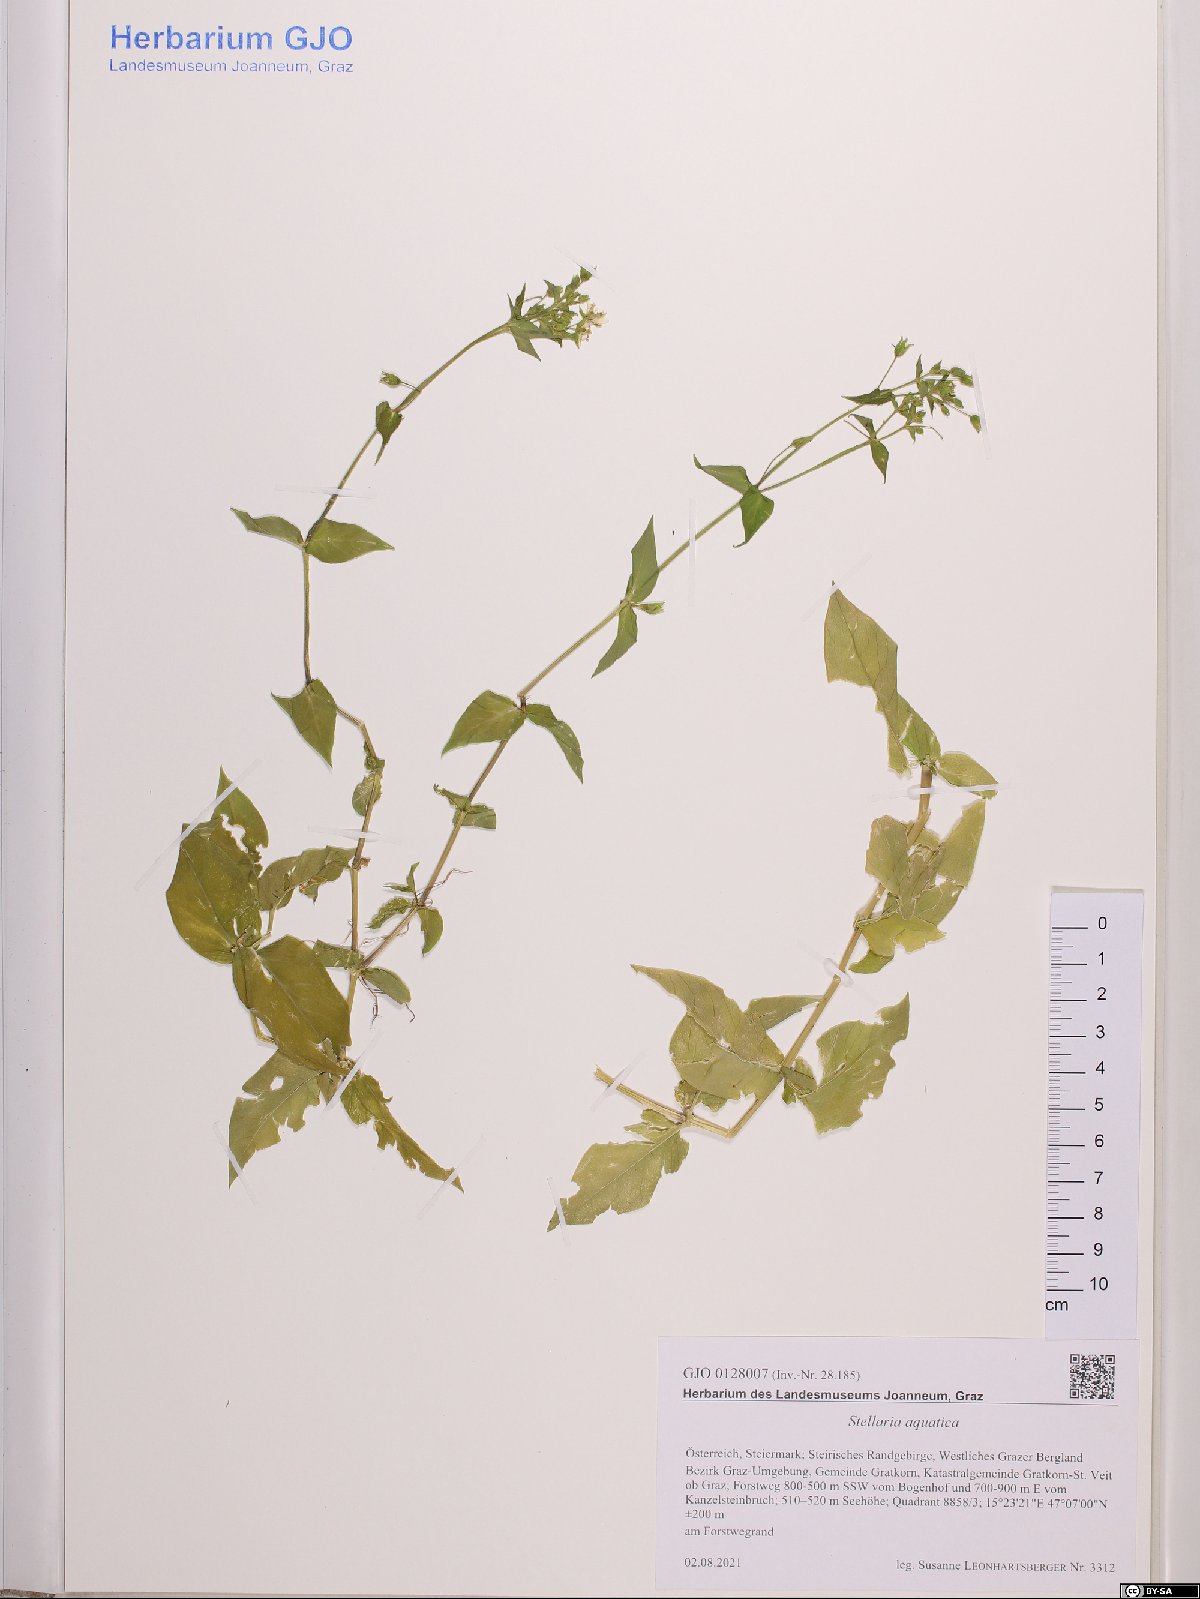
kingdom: Plantae
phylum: Tracheophyta
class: Magnoliopsida
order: Caryophyllales
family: Caryophyllaceae
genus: Stellaria
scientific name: Stellaria aquatica
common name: Water chickweed
